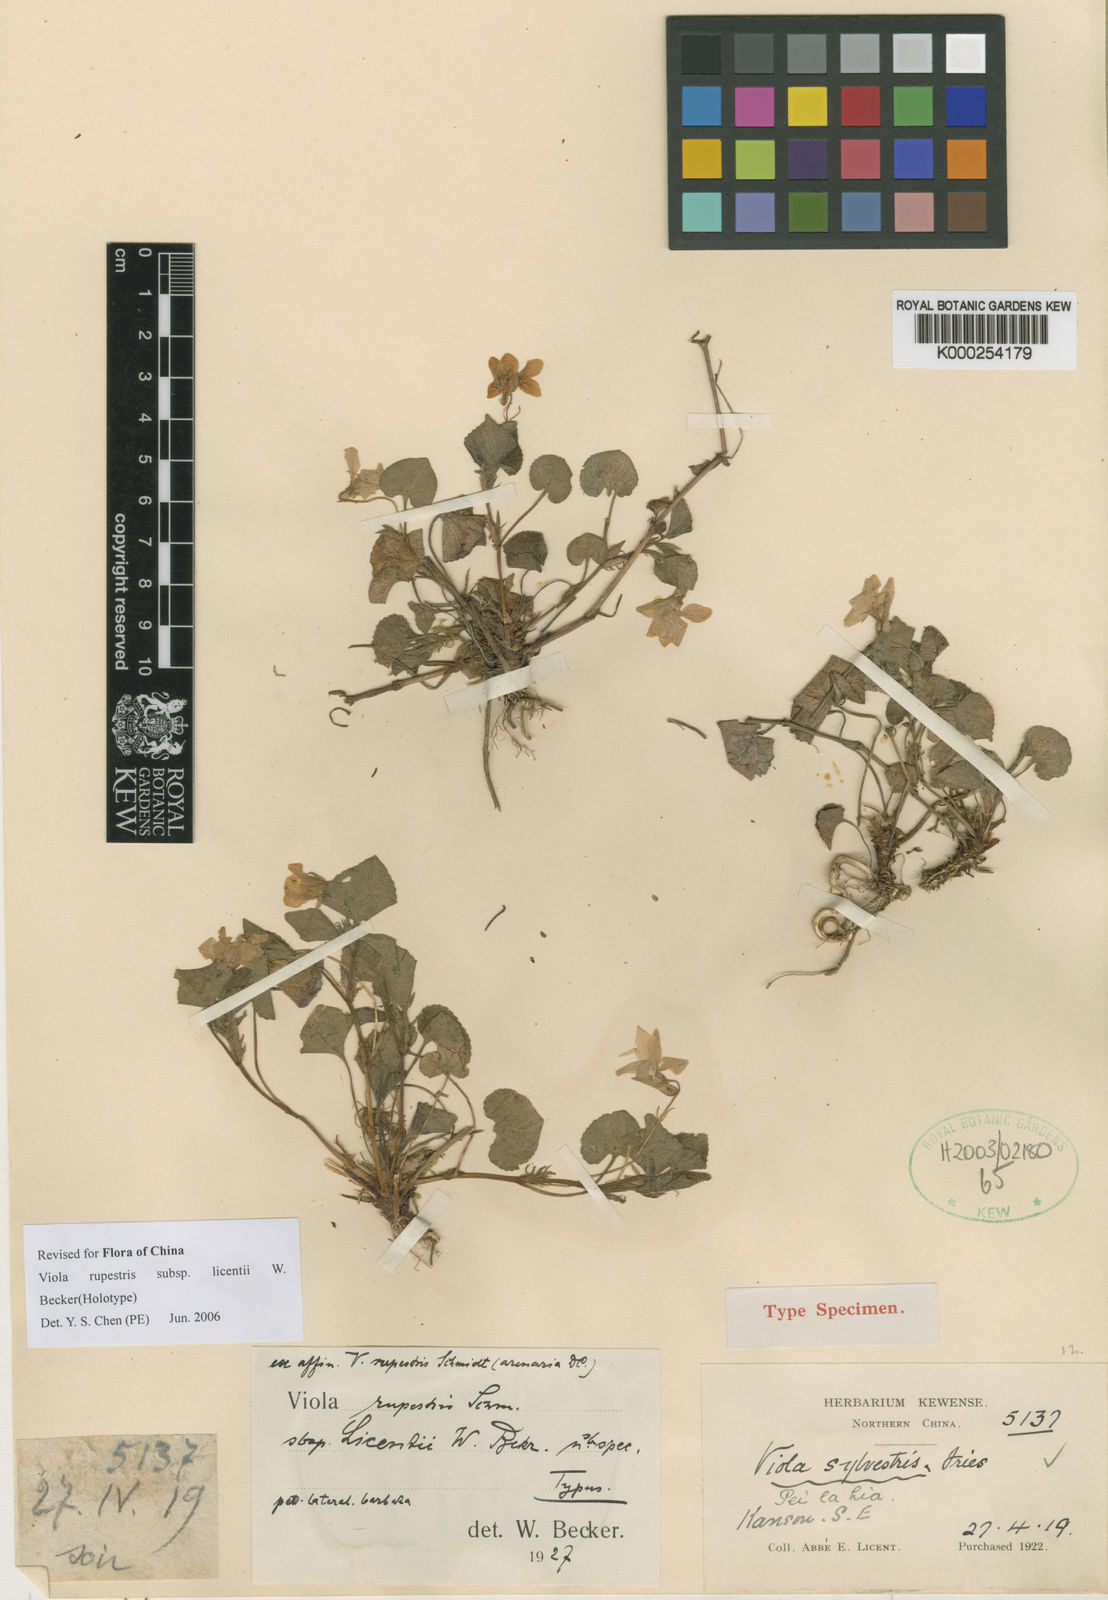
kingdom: Plantae
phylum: Tracheophyta
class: Magnoliopsida
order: Malpighiales
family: Violaceae
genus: Viola
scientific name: Viola rupestris
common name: Teesdale violet
